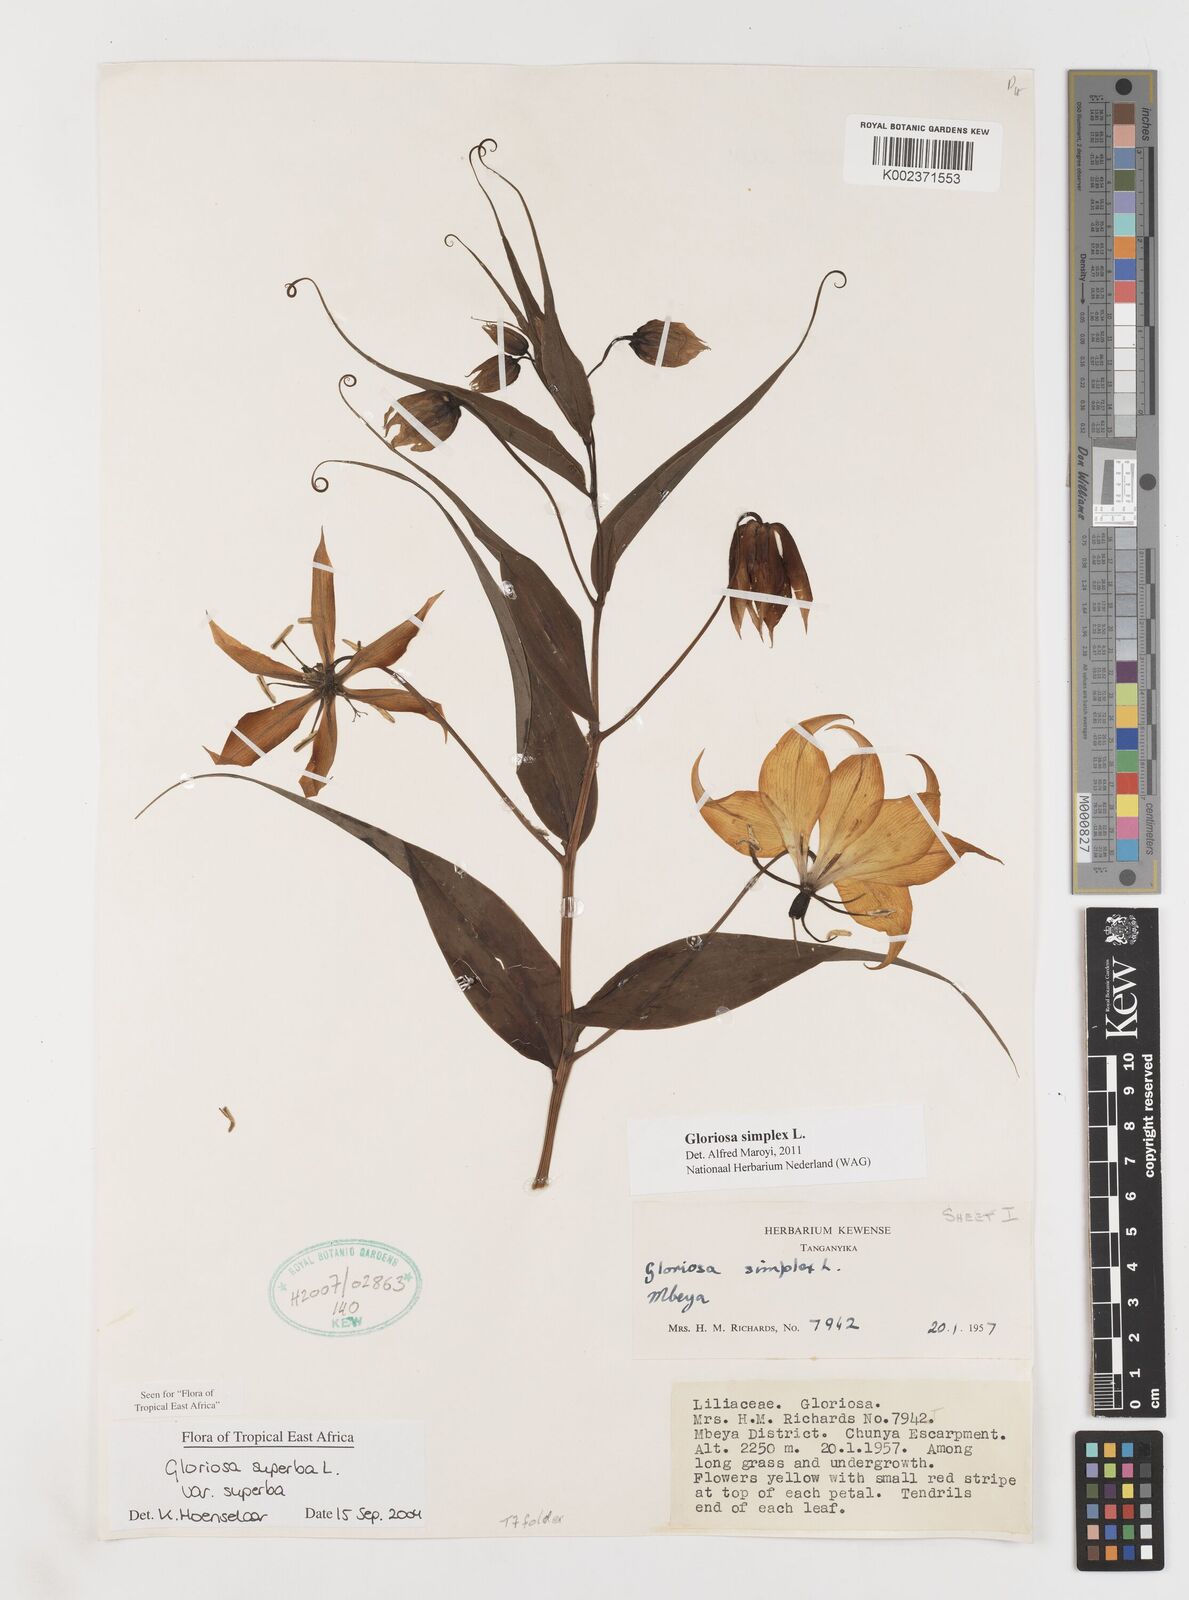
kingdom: Plantae
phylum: Tracheophyta
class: Liliopsida
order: Liliales
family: Colchicaceae
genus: Gloriosa
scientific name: Gloriosa simplex
